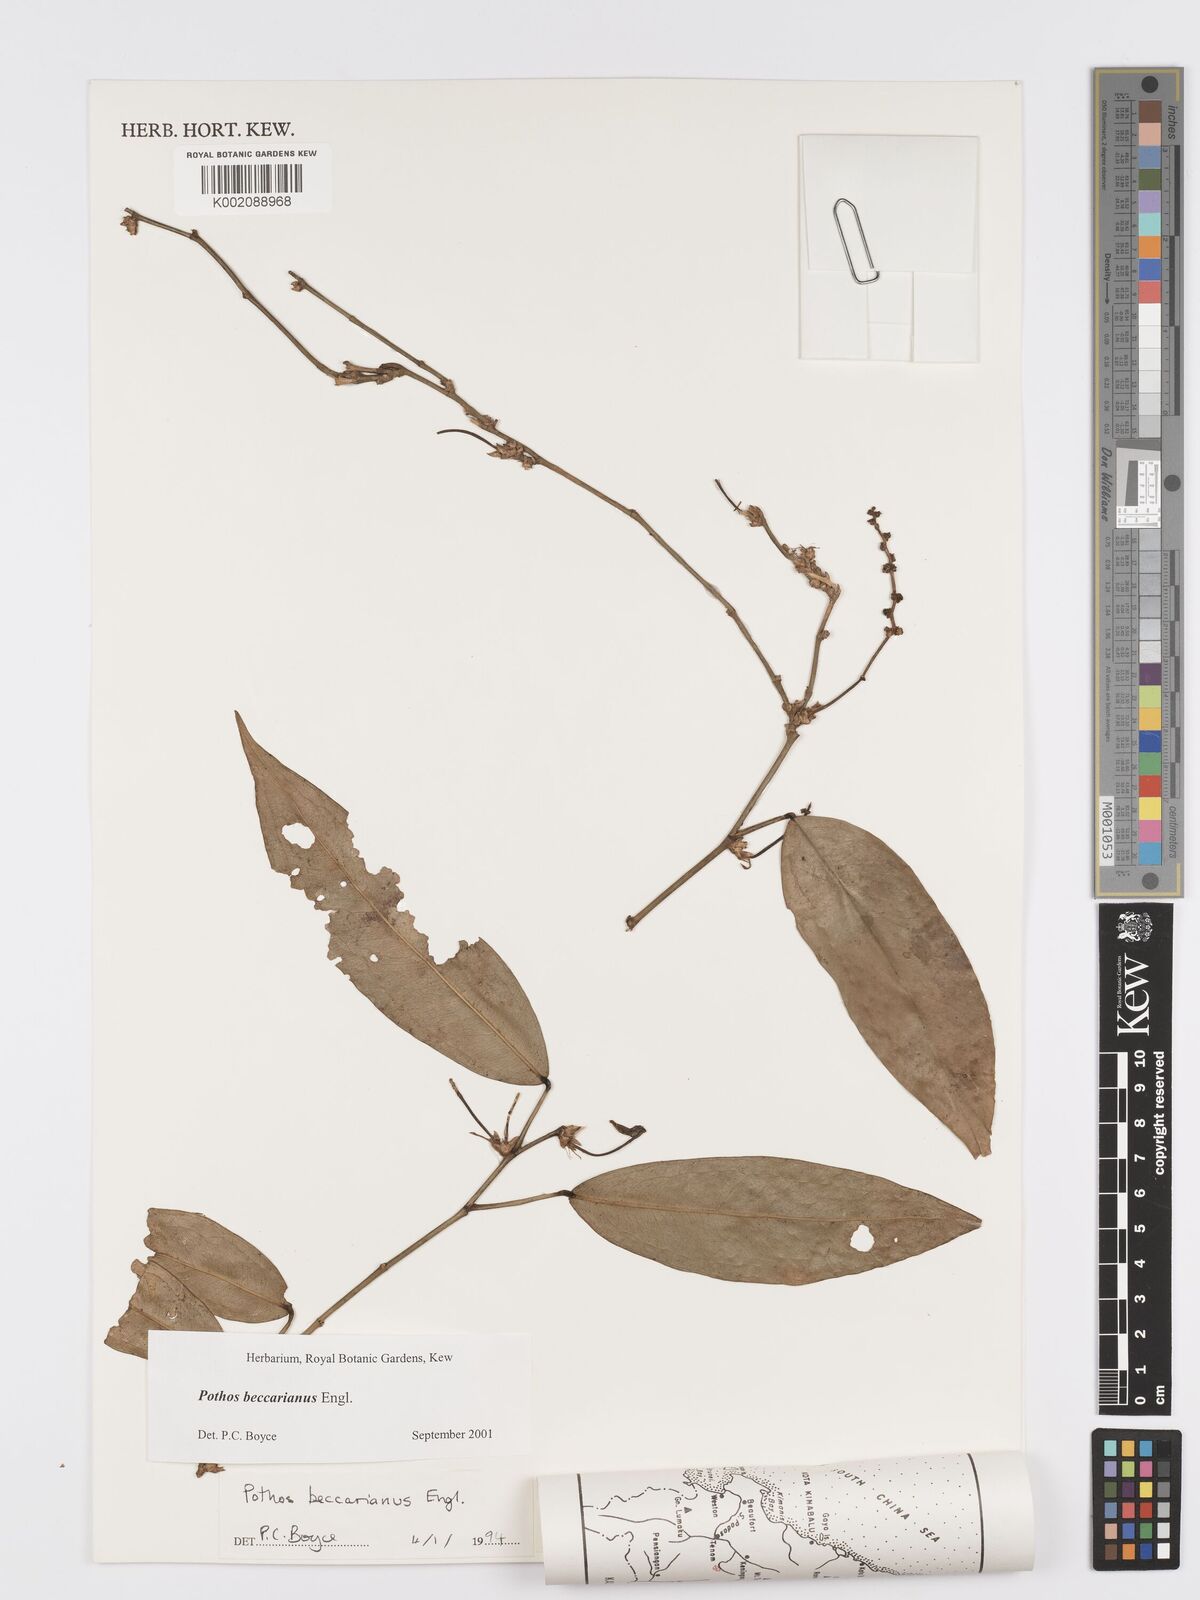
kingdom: Plantae
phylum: Tracheophyta
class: Liliopsida
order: Alismatales
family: Araceae
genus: Pothos
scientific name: Pothos beccarianus
